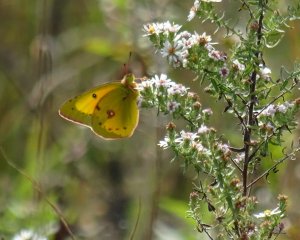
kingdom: Animalia
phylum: Arthropoda
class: Insecta
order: Lepidoptera
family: Pieridae
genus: Colias
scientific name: Colias eurytheme
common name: Orange Sulphur
